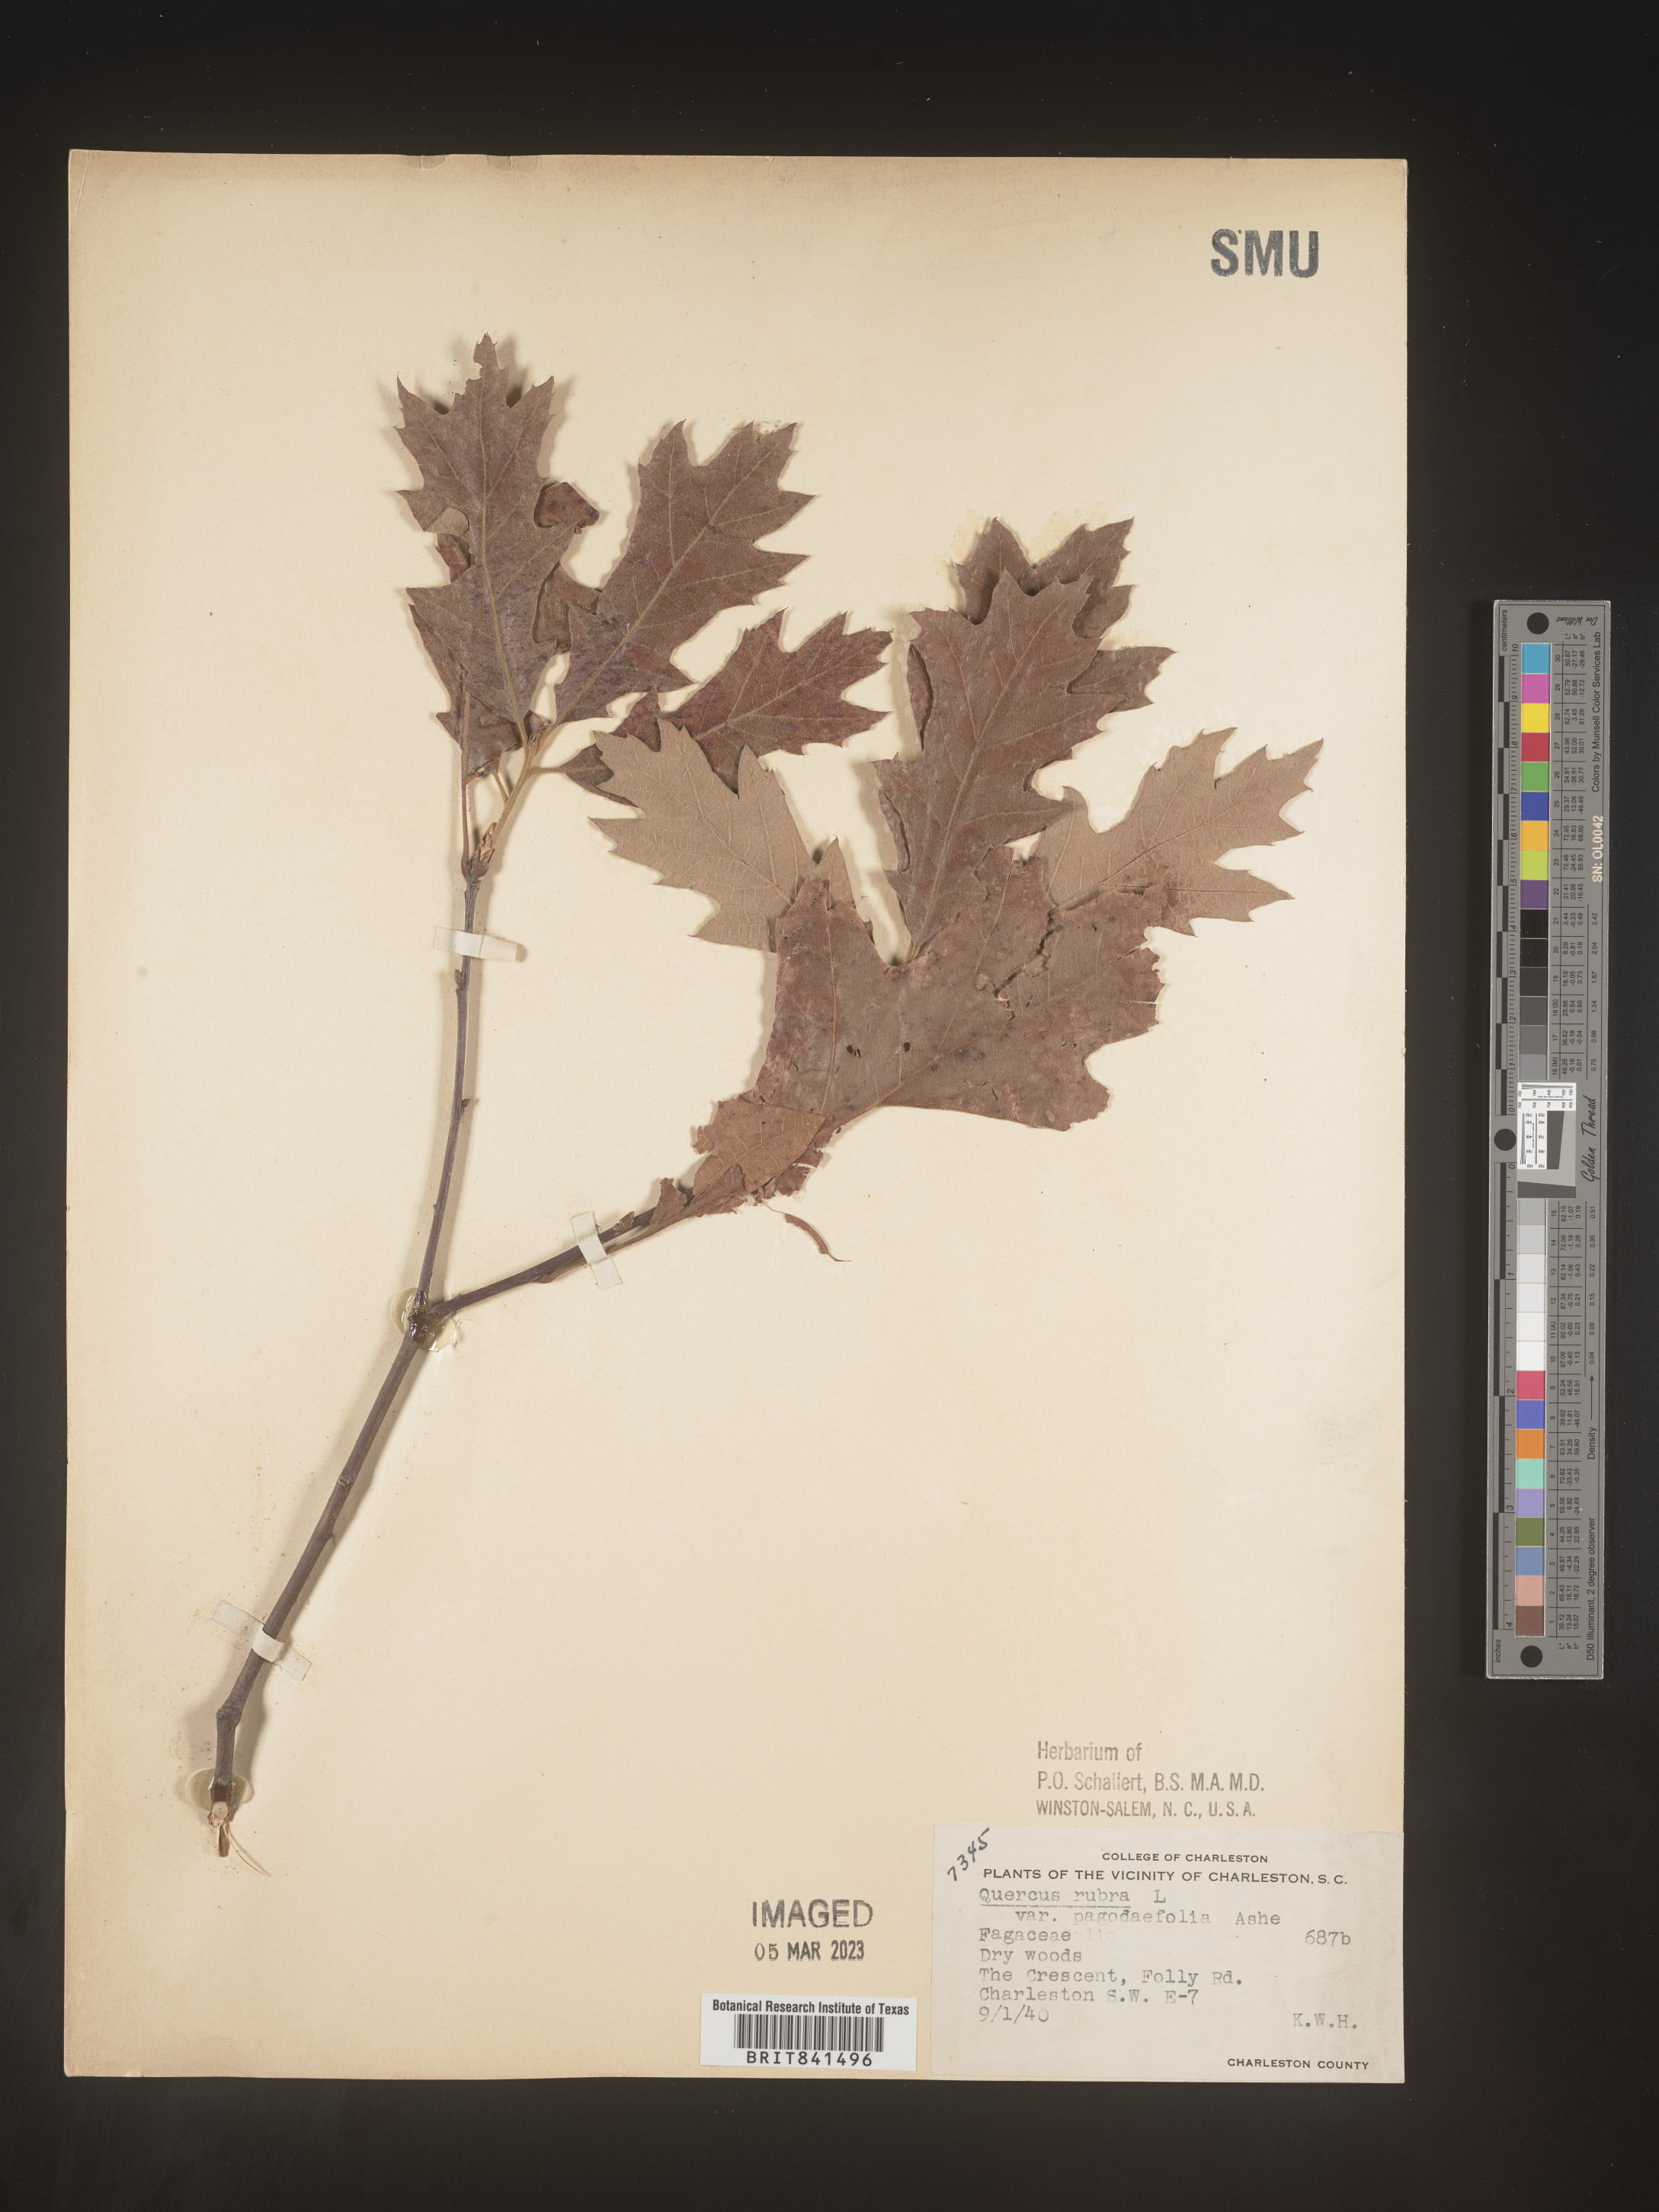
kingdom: Plantae
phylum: Tracheophyta
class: Magnoliopsida
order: Fagales
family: Fagaceae
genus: Quercus
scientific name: Quercus rubra
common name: Red oak
